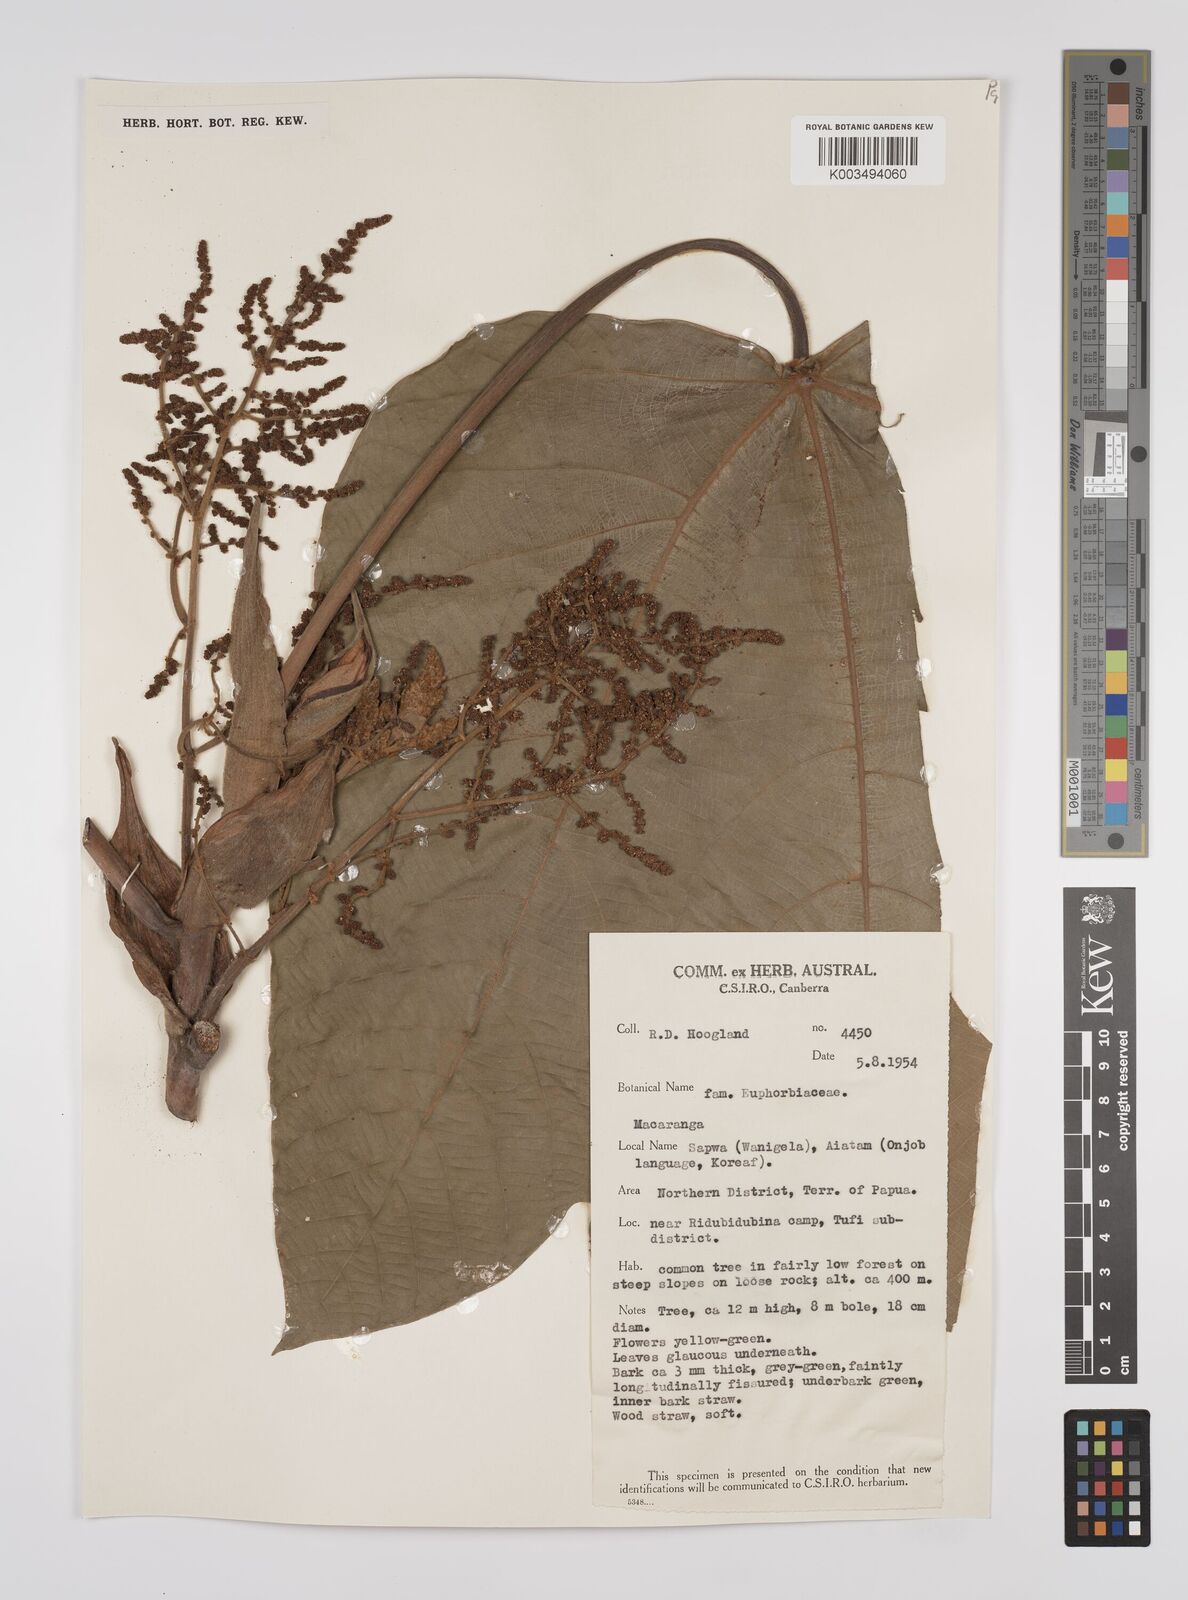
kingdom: Plantae
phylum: Tracheophyta
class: Magnoliopsida
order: Malpighiales
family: Euphorbiaceae
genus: Macaranga
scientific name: Macaranga aleuritoides
